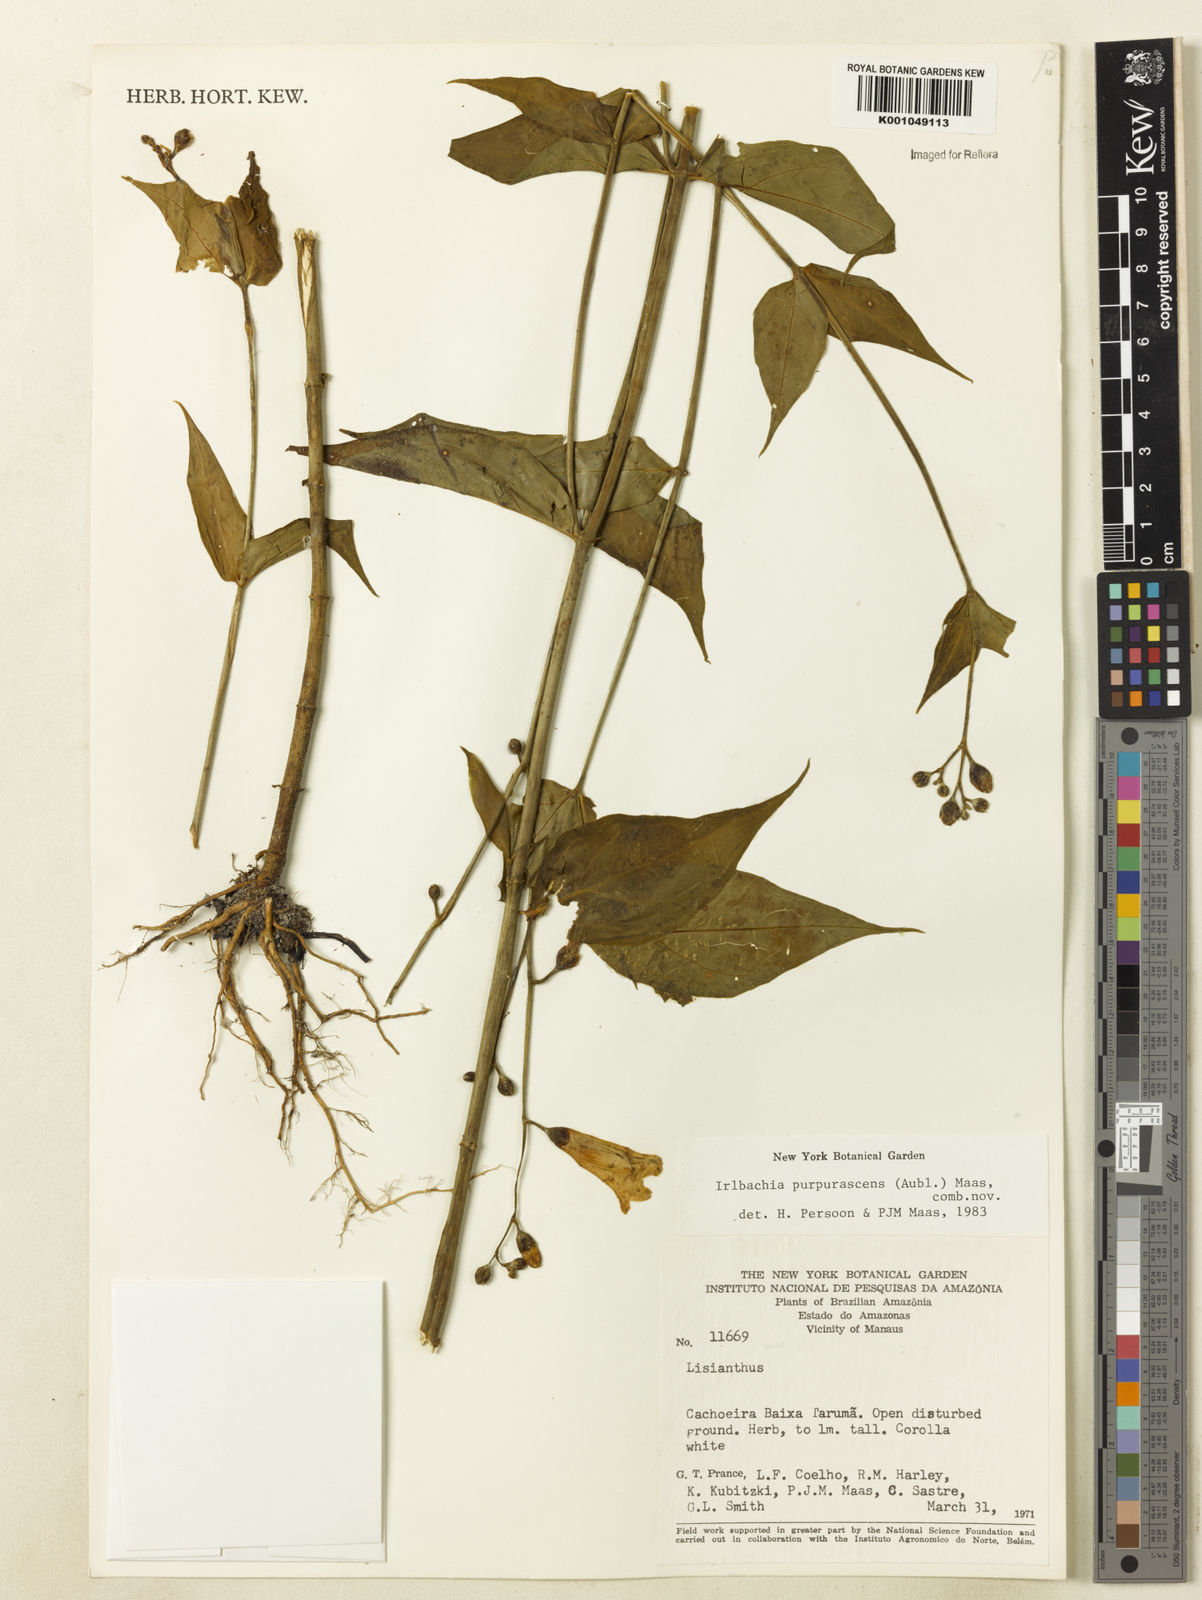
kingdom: Plantae
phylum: Tracheophyta
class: Magnoliopsida
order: Gentianales
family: Gentianaceae
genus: Chelonanthus
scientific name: Chelonanthus purpurascens
